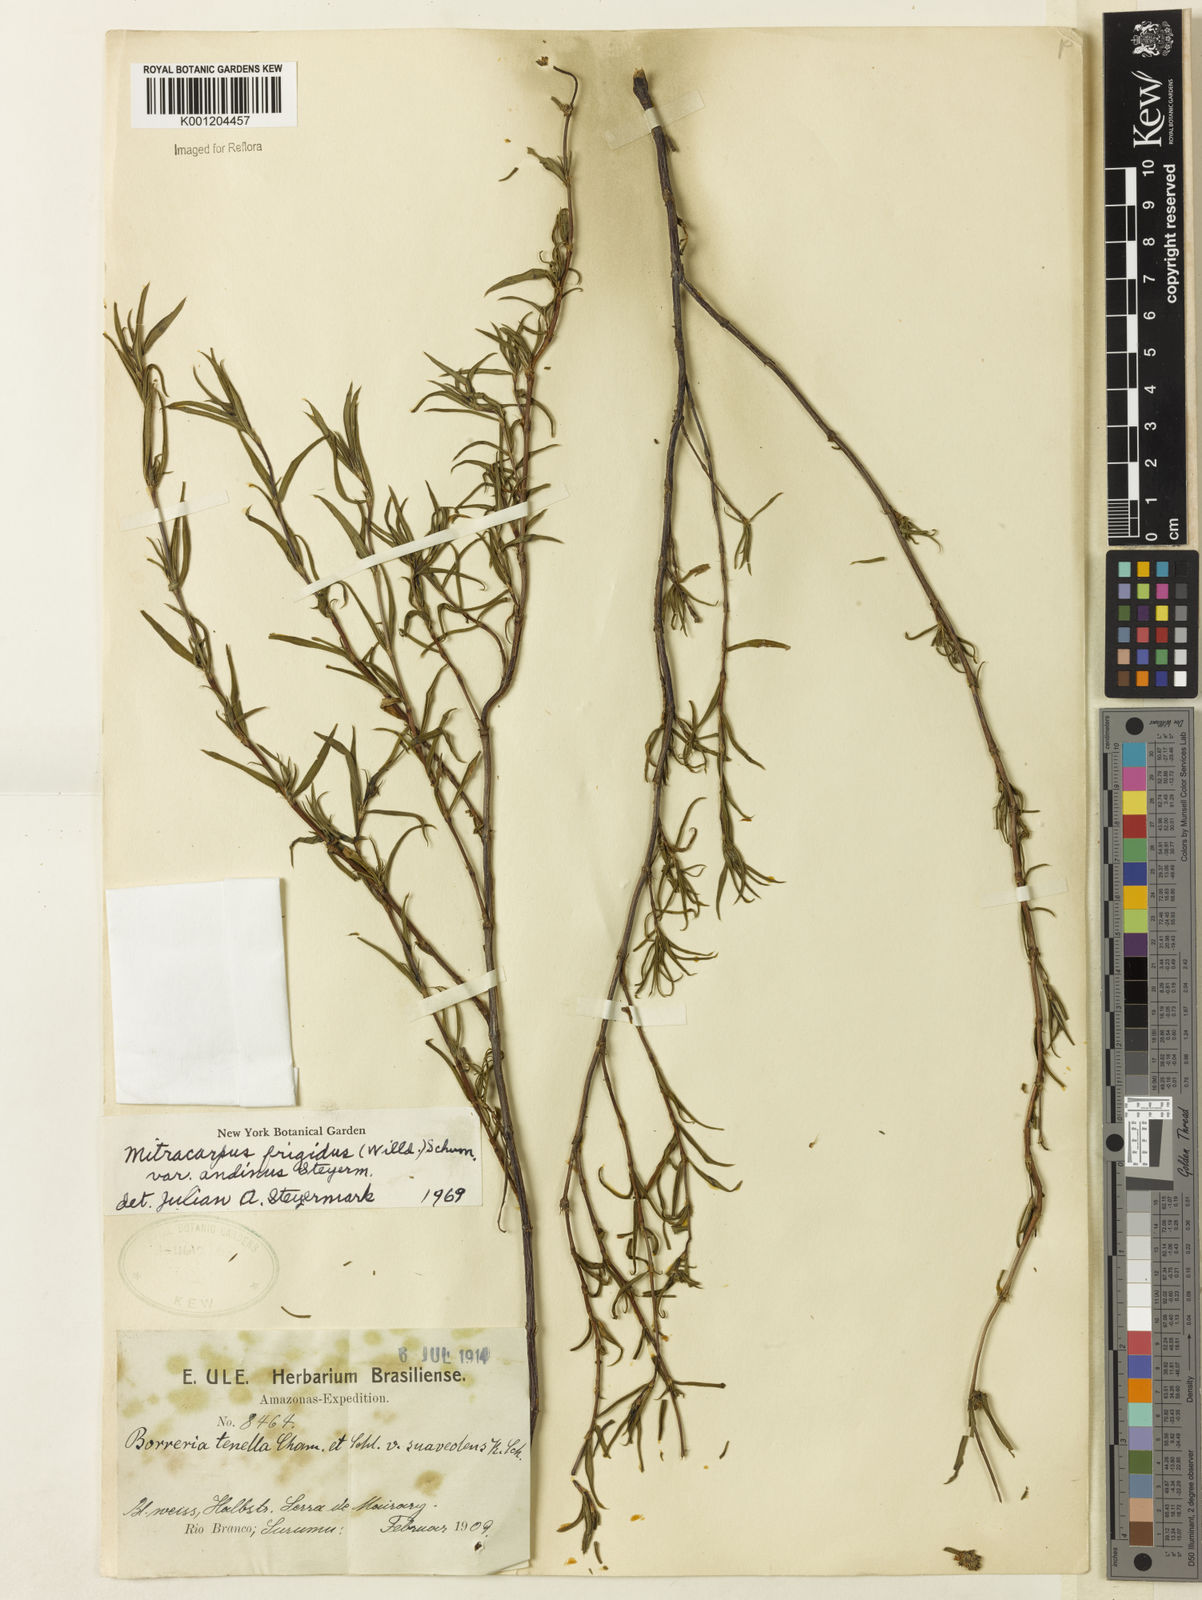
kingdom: Plantae
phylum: Tracheophyta
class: Magnoliopsida
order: Gentianales
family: Rubiaceae
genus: Mitracarpus
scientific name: Mitracarpus frigidus
